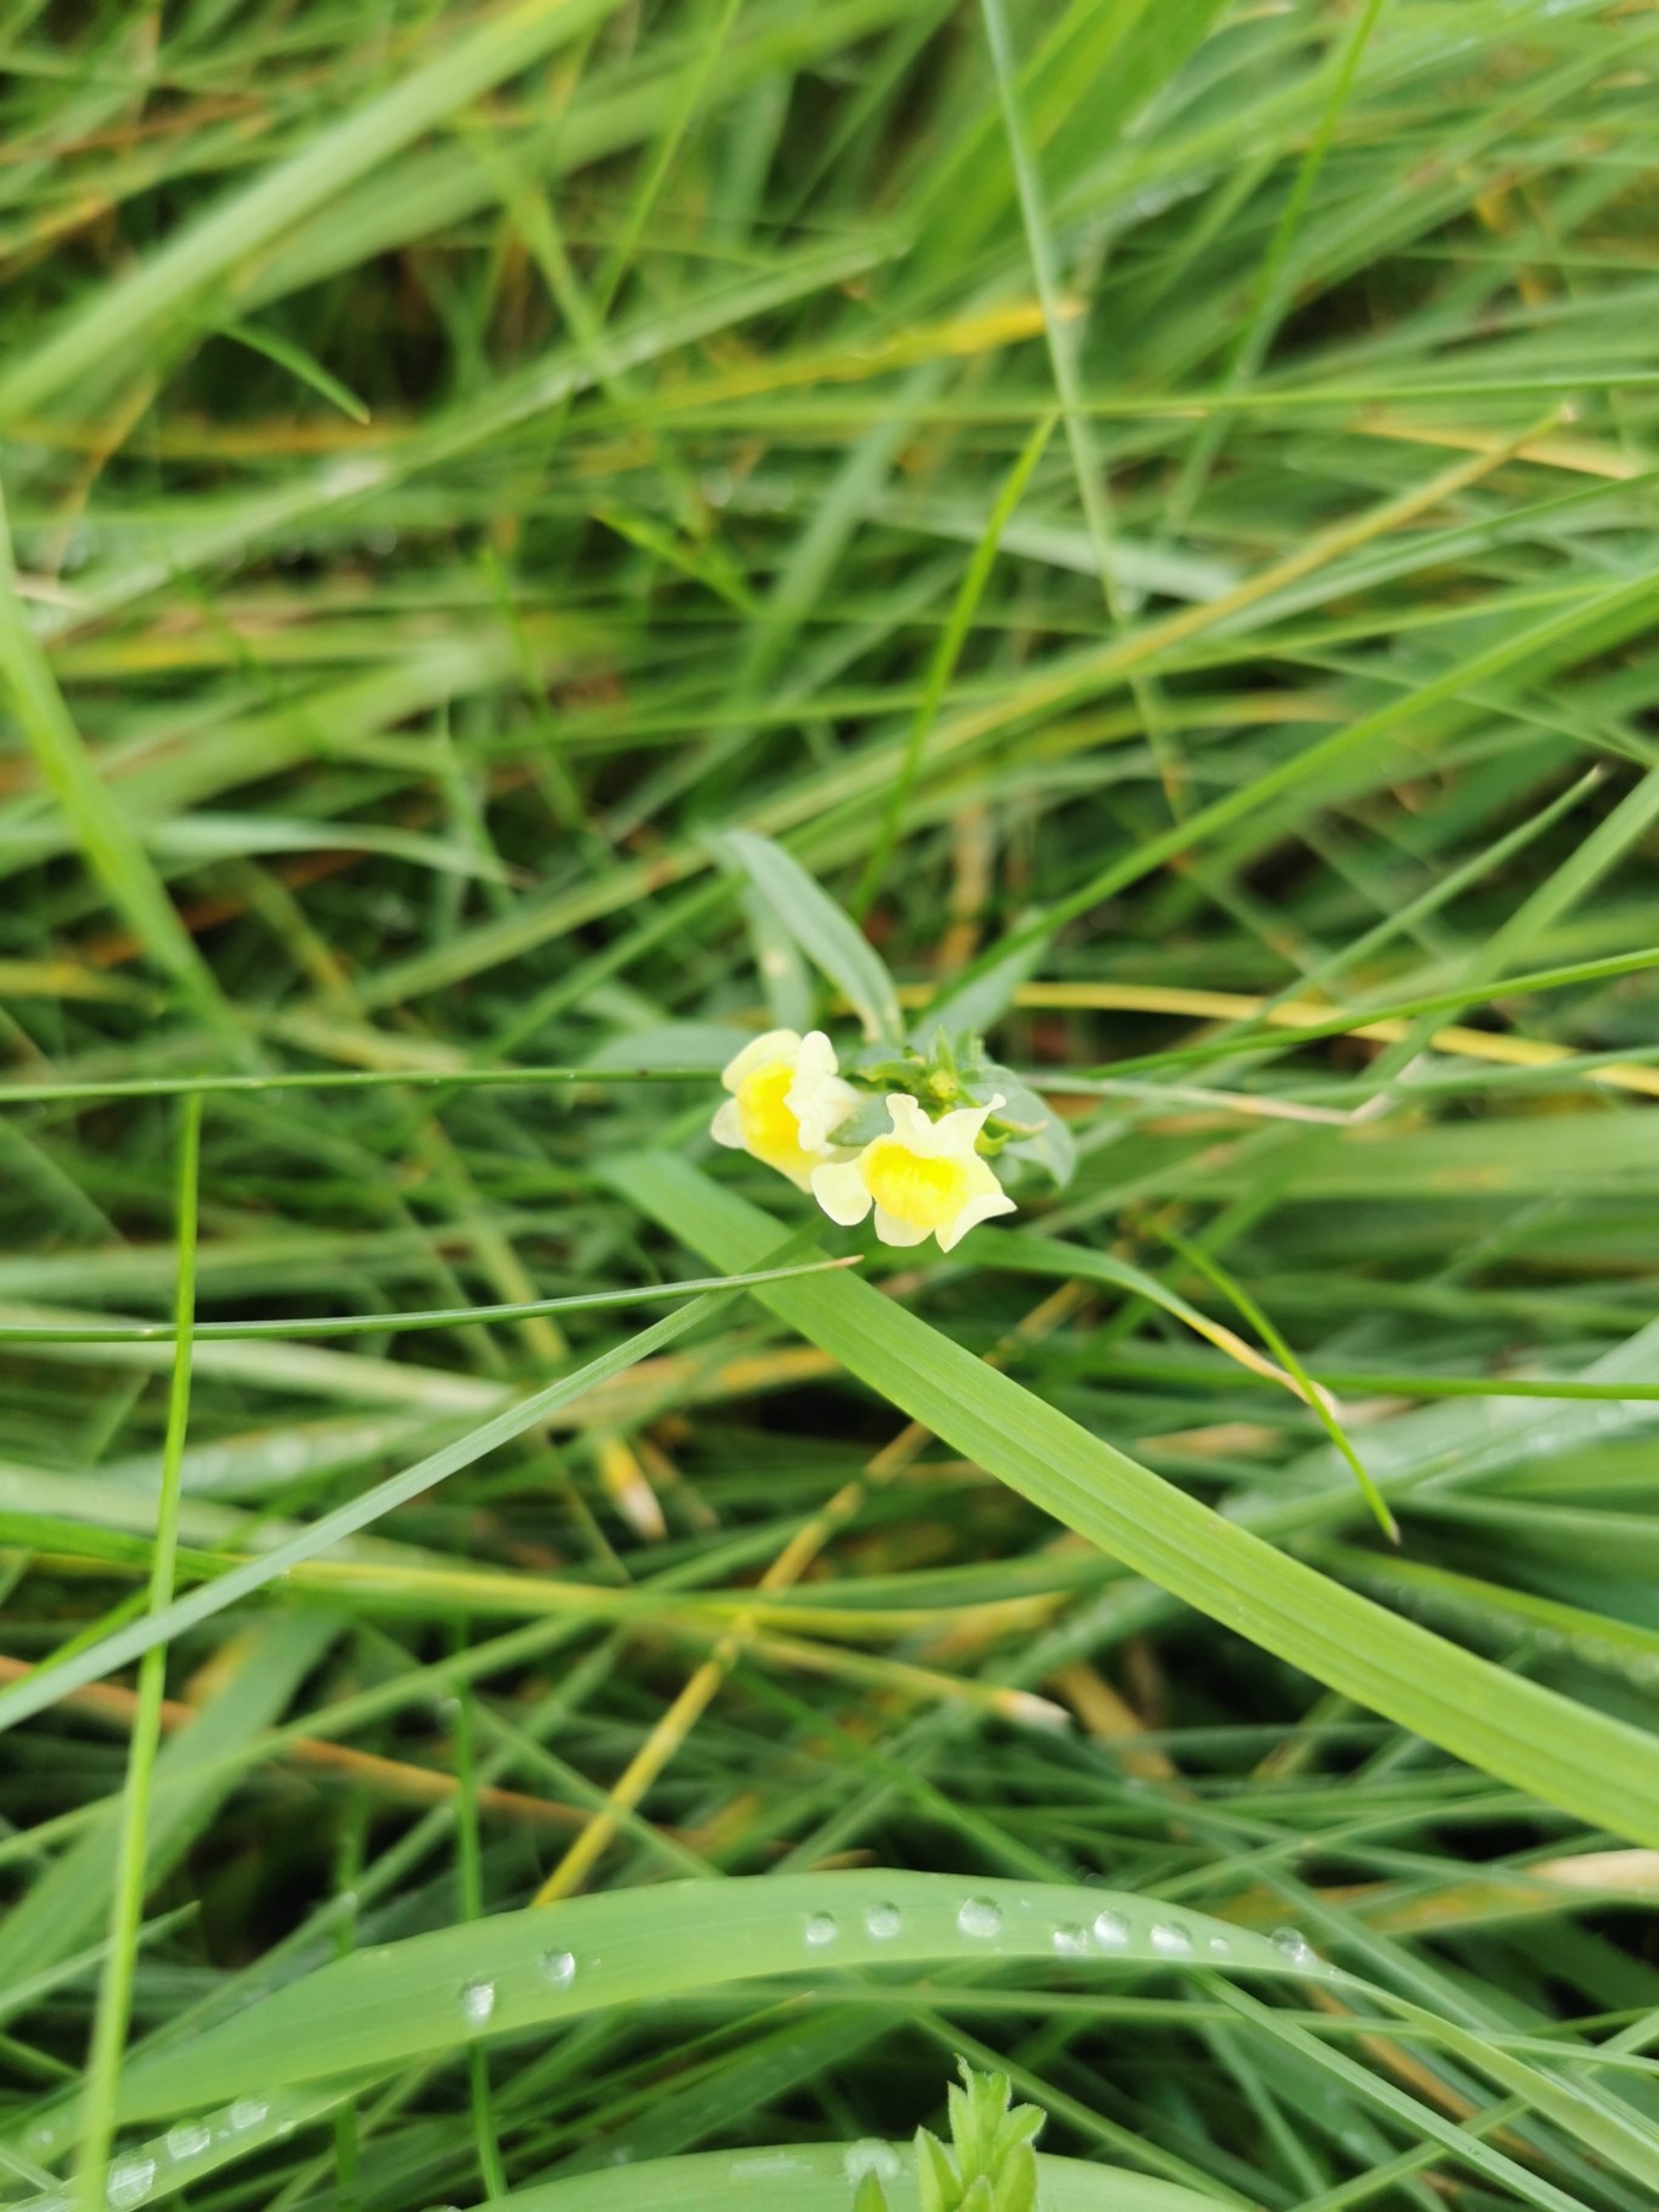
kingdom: Plantae
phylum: Tracheophyta
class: Magnoliopsida
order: Lamiales
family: Plantaginaceae
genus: Linaria
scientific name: Linaria vulgaris
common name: Almindelig torskemund
